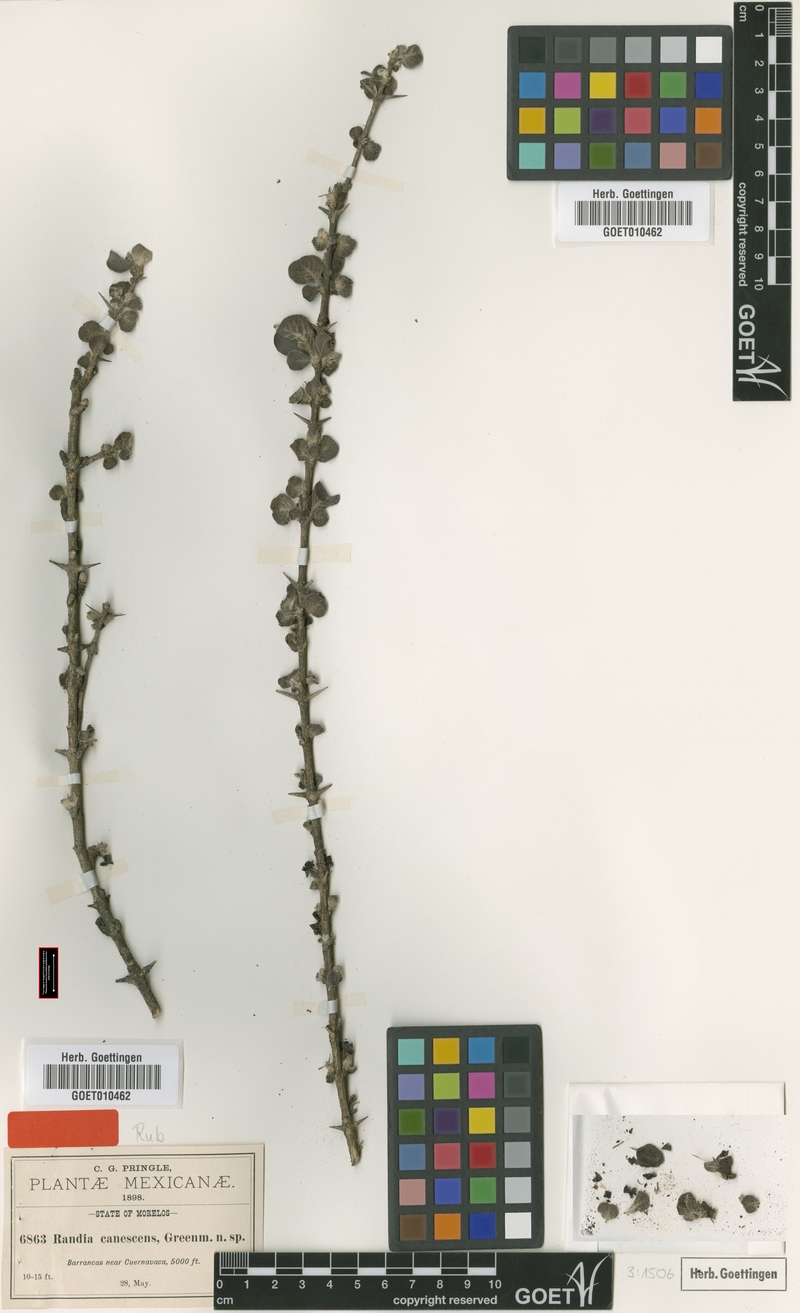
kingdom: Plantae
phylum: Tracheophyta
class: Magnoliopsida
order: Gentianales
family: Rubiaceae
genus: Randia
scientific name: Randia canescens
